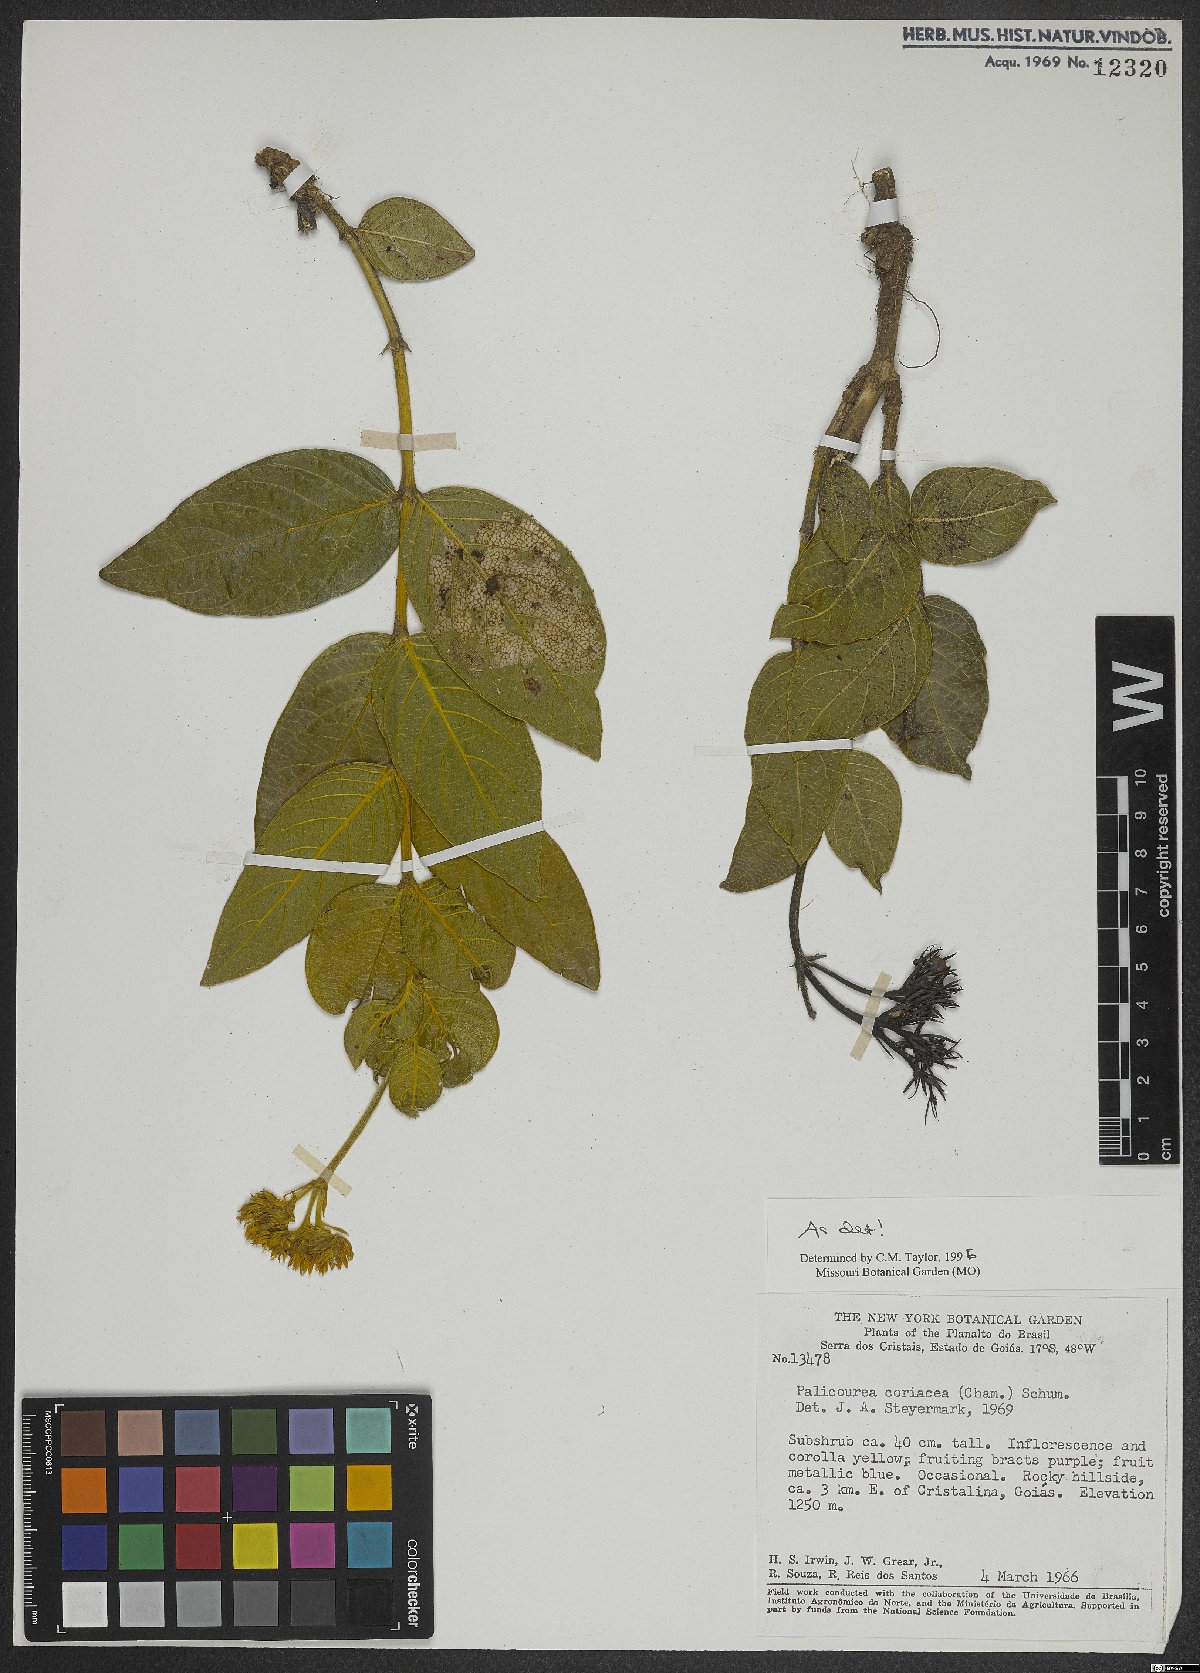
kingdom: Plantae
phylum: Tracheophyta
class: Magnoliopsida
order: Gentianales
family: Rubiaceae
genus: Palicourea
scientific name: Palicourea coriacea
